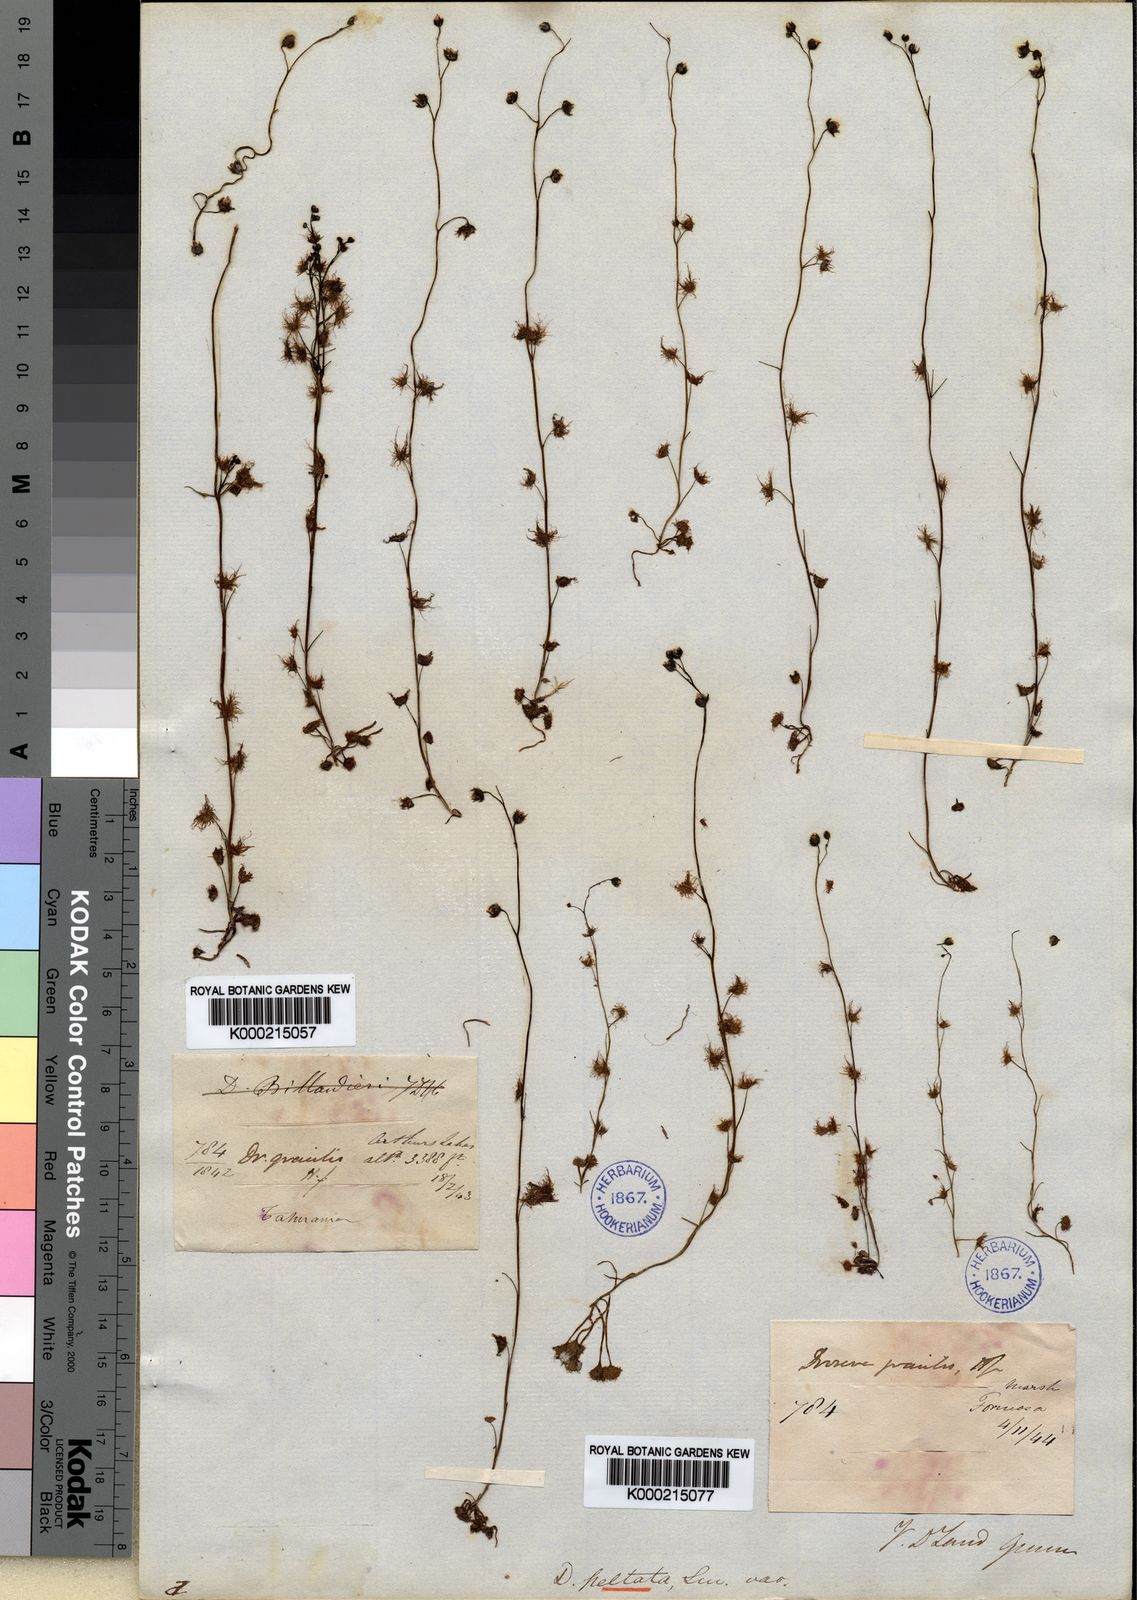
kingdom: Plantae
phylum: Tracheophyta
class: Magnoliopsida
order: Caryophyllales
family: Droseraceae
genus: Drosera
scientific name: Drosera peltata
